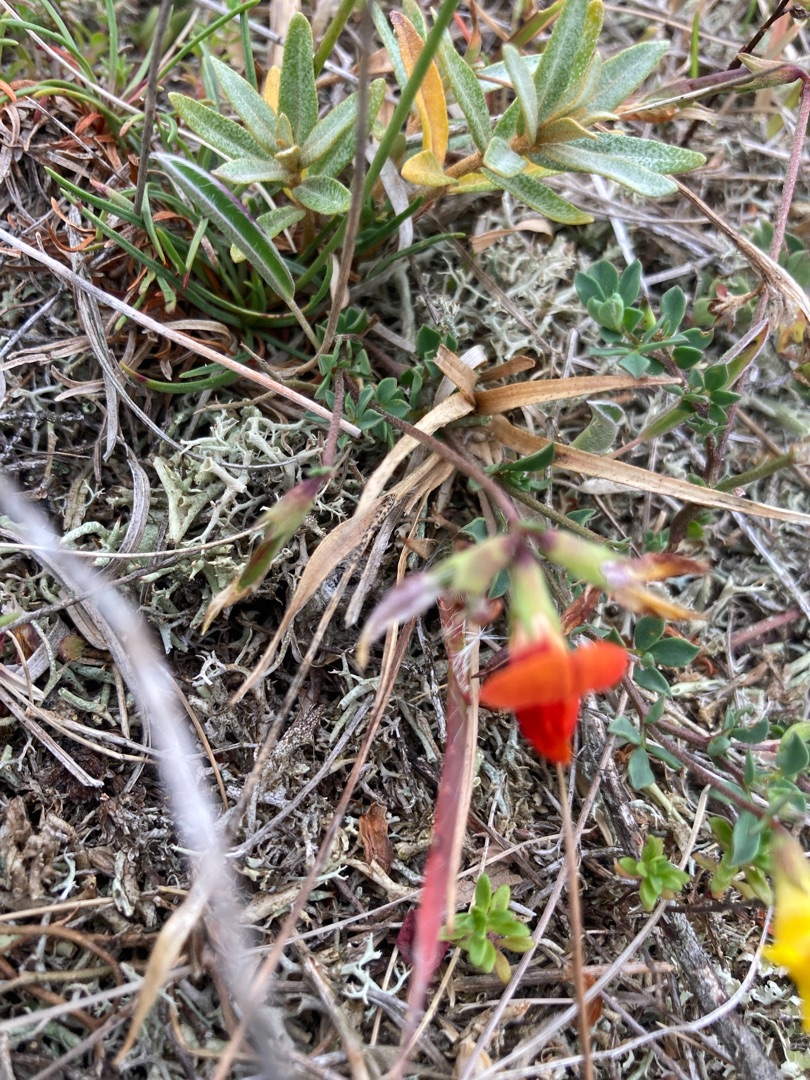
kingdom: Plantae
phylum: Tracheophyta
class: Magnoliopsida
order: Fabales
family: Fabaceae
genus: Lotus
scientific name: Lotus corniculatus
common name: Almindelig kællingetand
